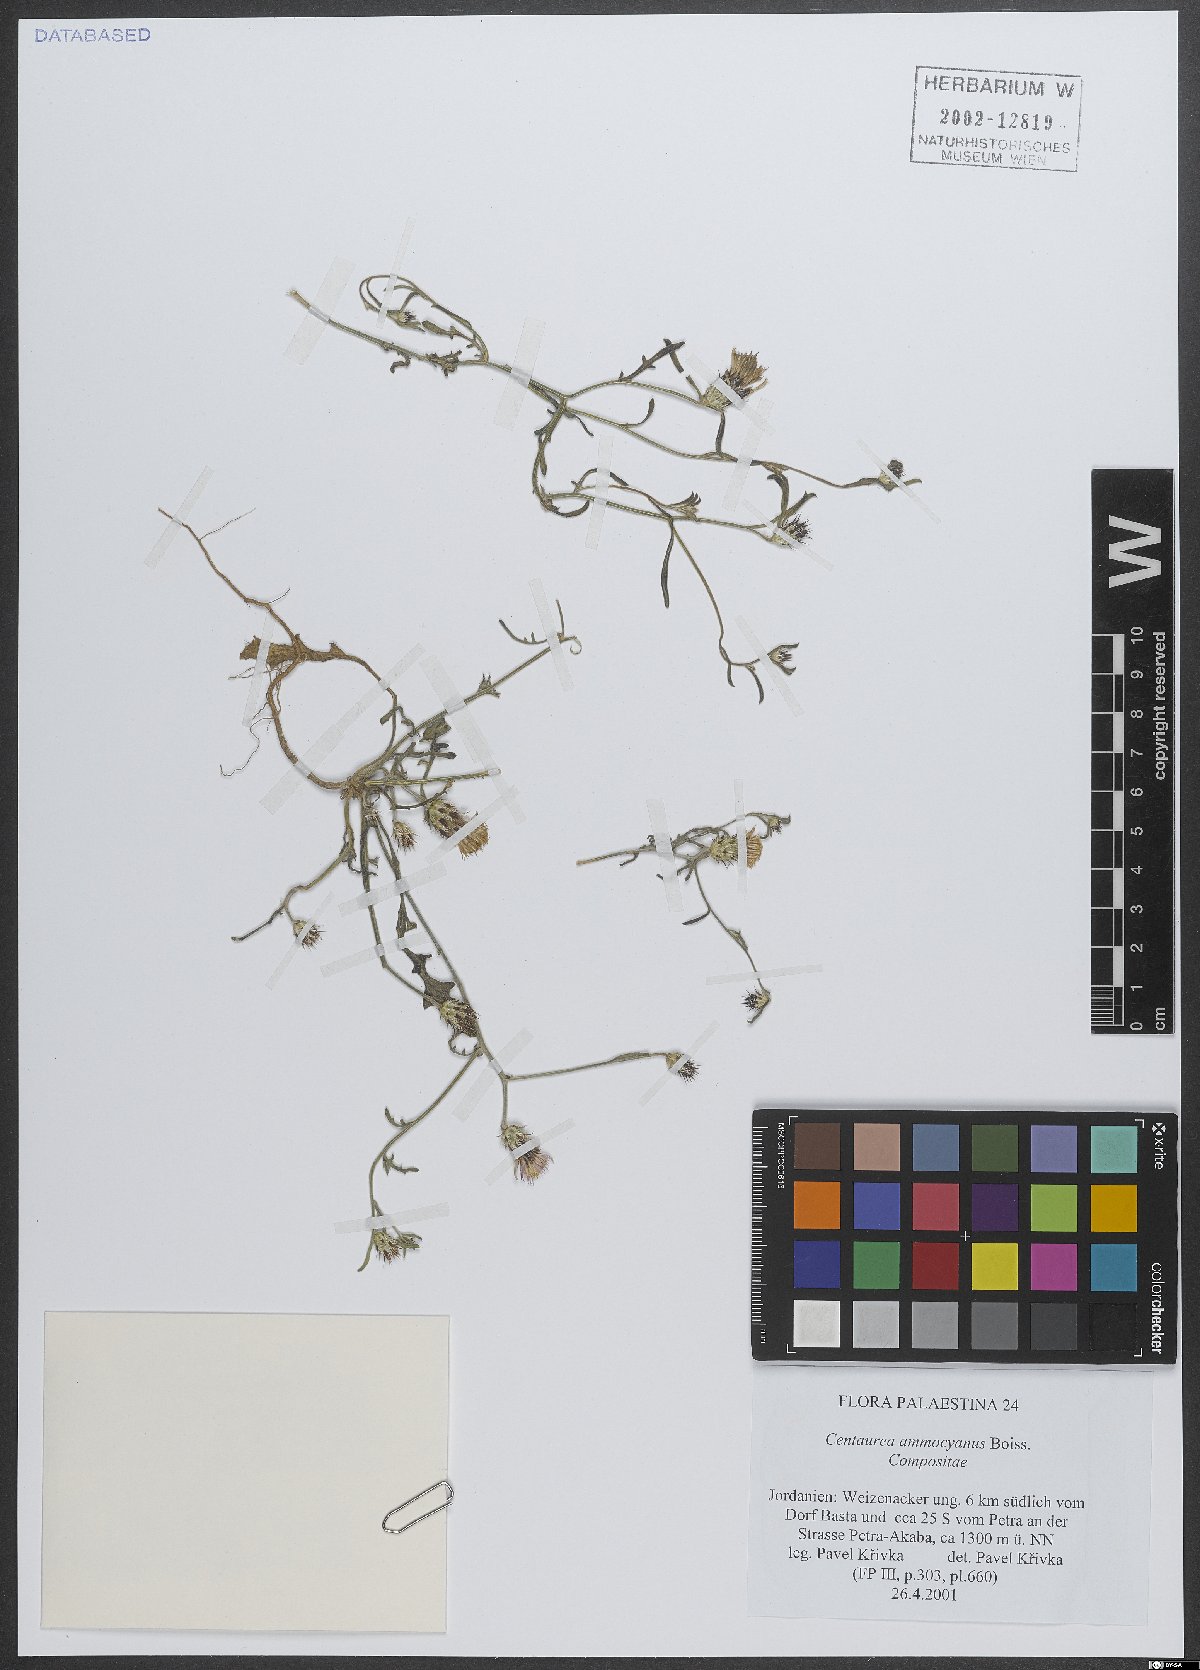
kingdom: Plantae
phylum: Tracheophyta
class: Magnoliopsida
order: Asterales
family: Asteraceae
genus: Centaurea
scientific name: Centaurea ammocyanus
